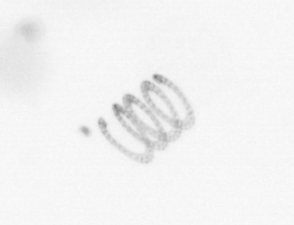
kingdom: Chromista
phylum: Ochrophyta
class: Bacillariophyceae
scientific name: Bacillariophyceae
